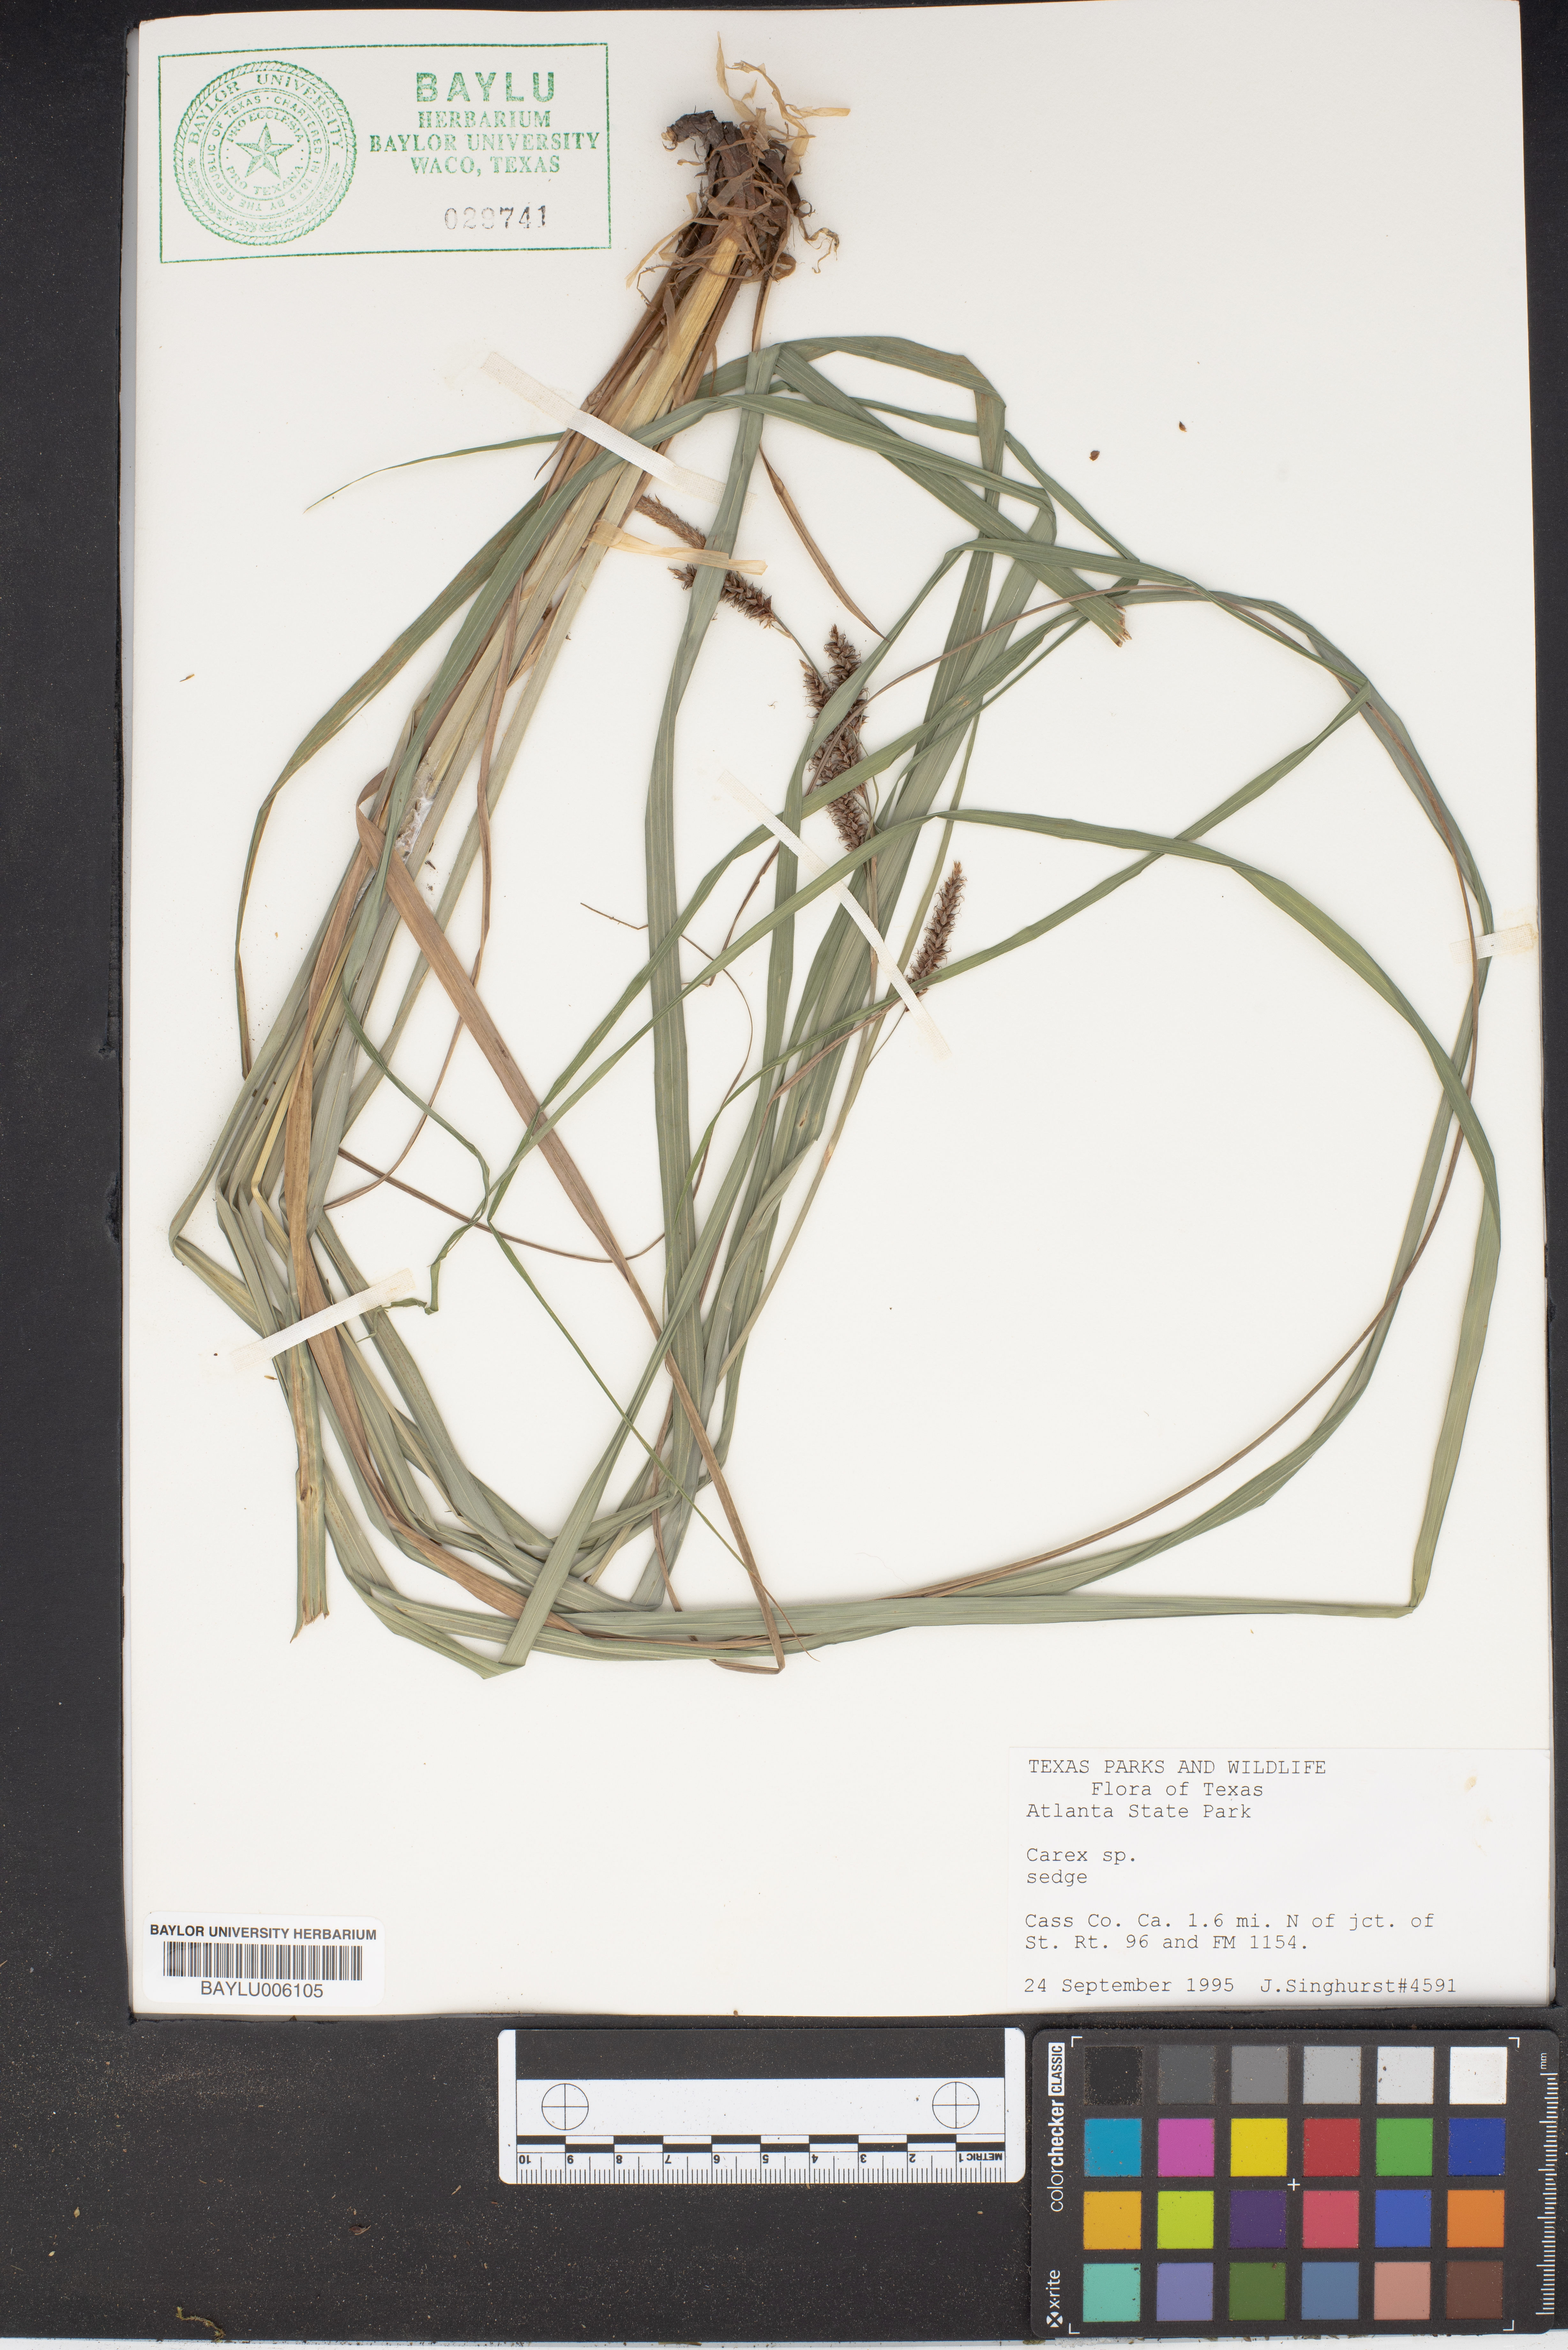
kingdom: Plantae
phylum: Tracheophyta
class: Liliopsida
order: Poales
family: Cyperaceae
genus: Carex
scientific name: Carex
